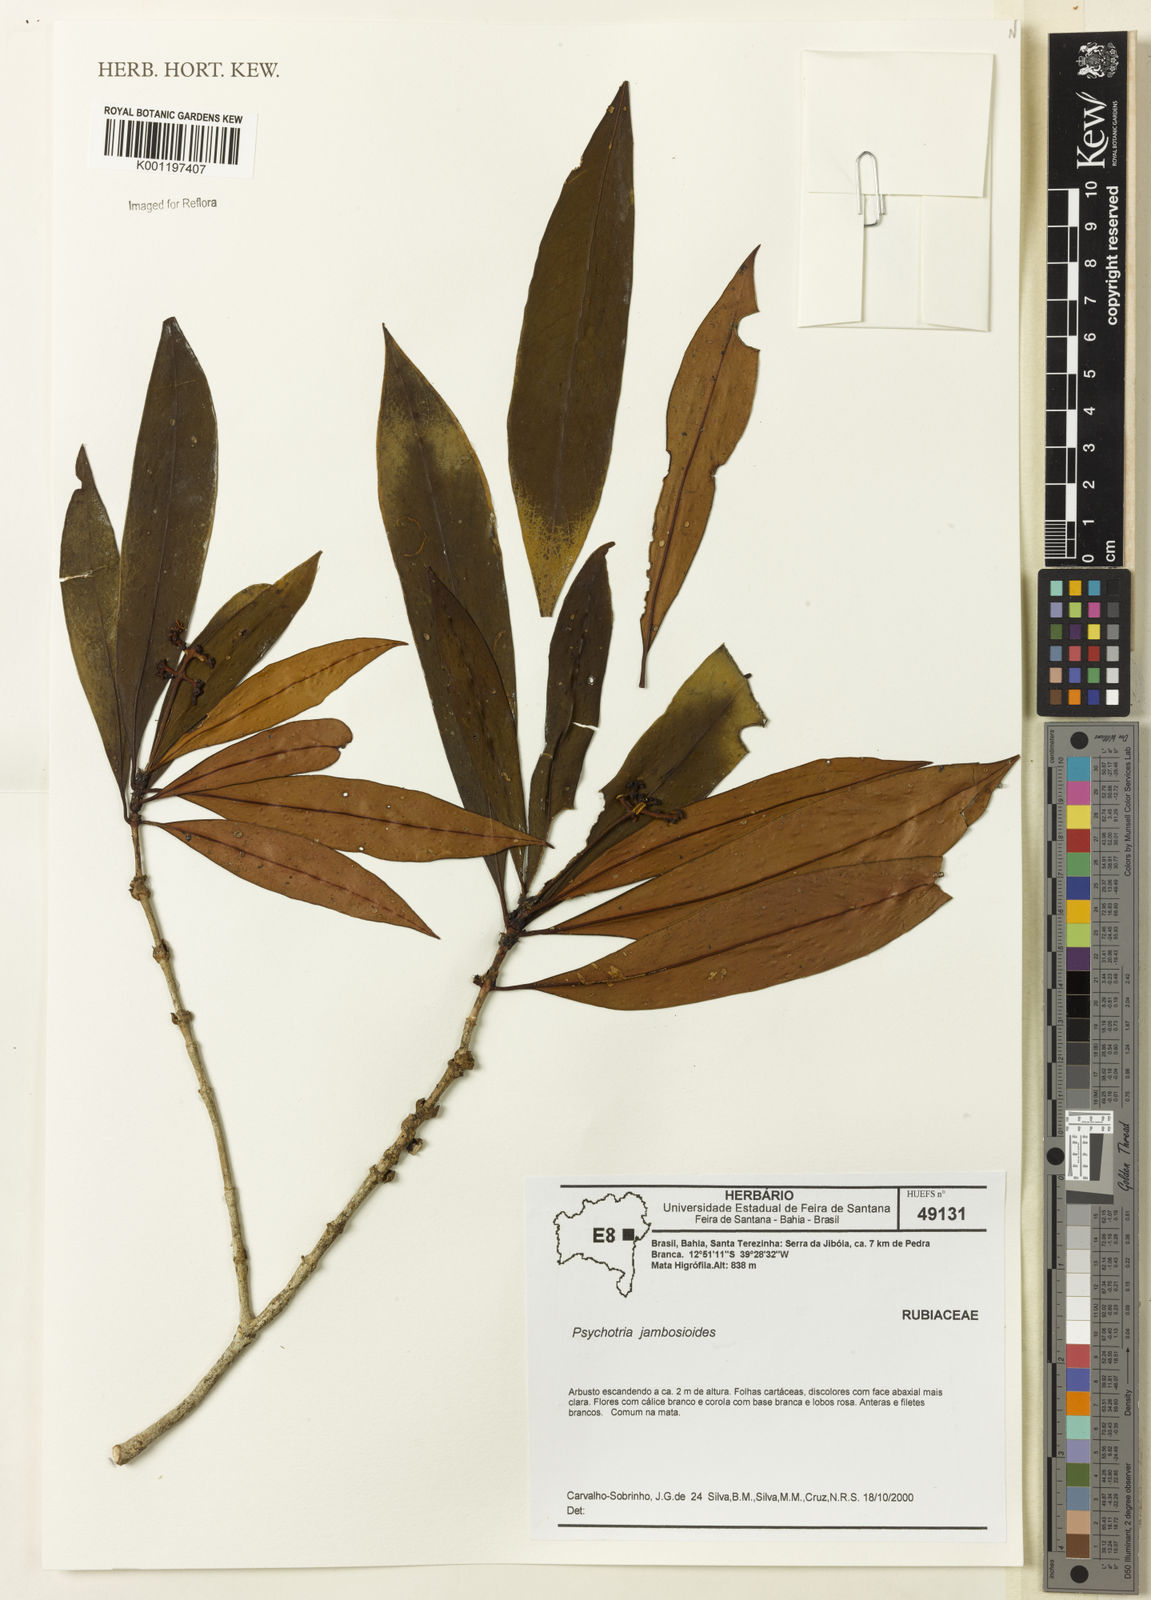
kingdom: Plantae
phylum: Tracheophyta
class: Magnoliopsida
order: Gentianales
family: Rubiaceae
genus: Palicourea
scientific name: Palicourea jambosioides
